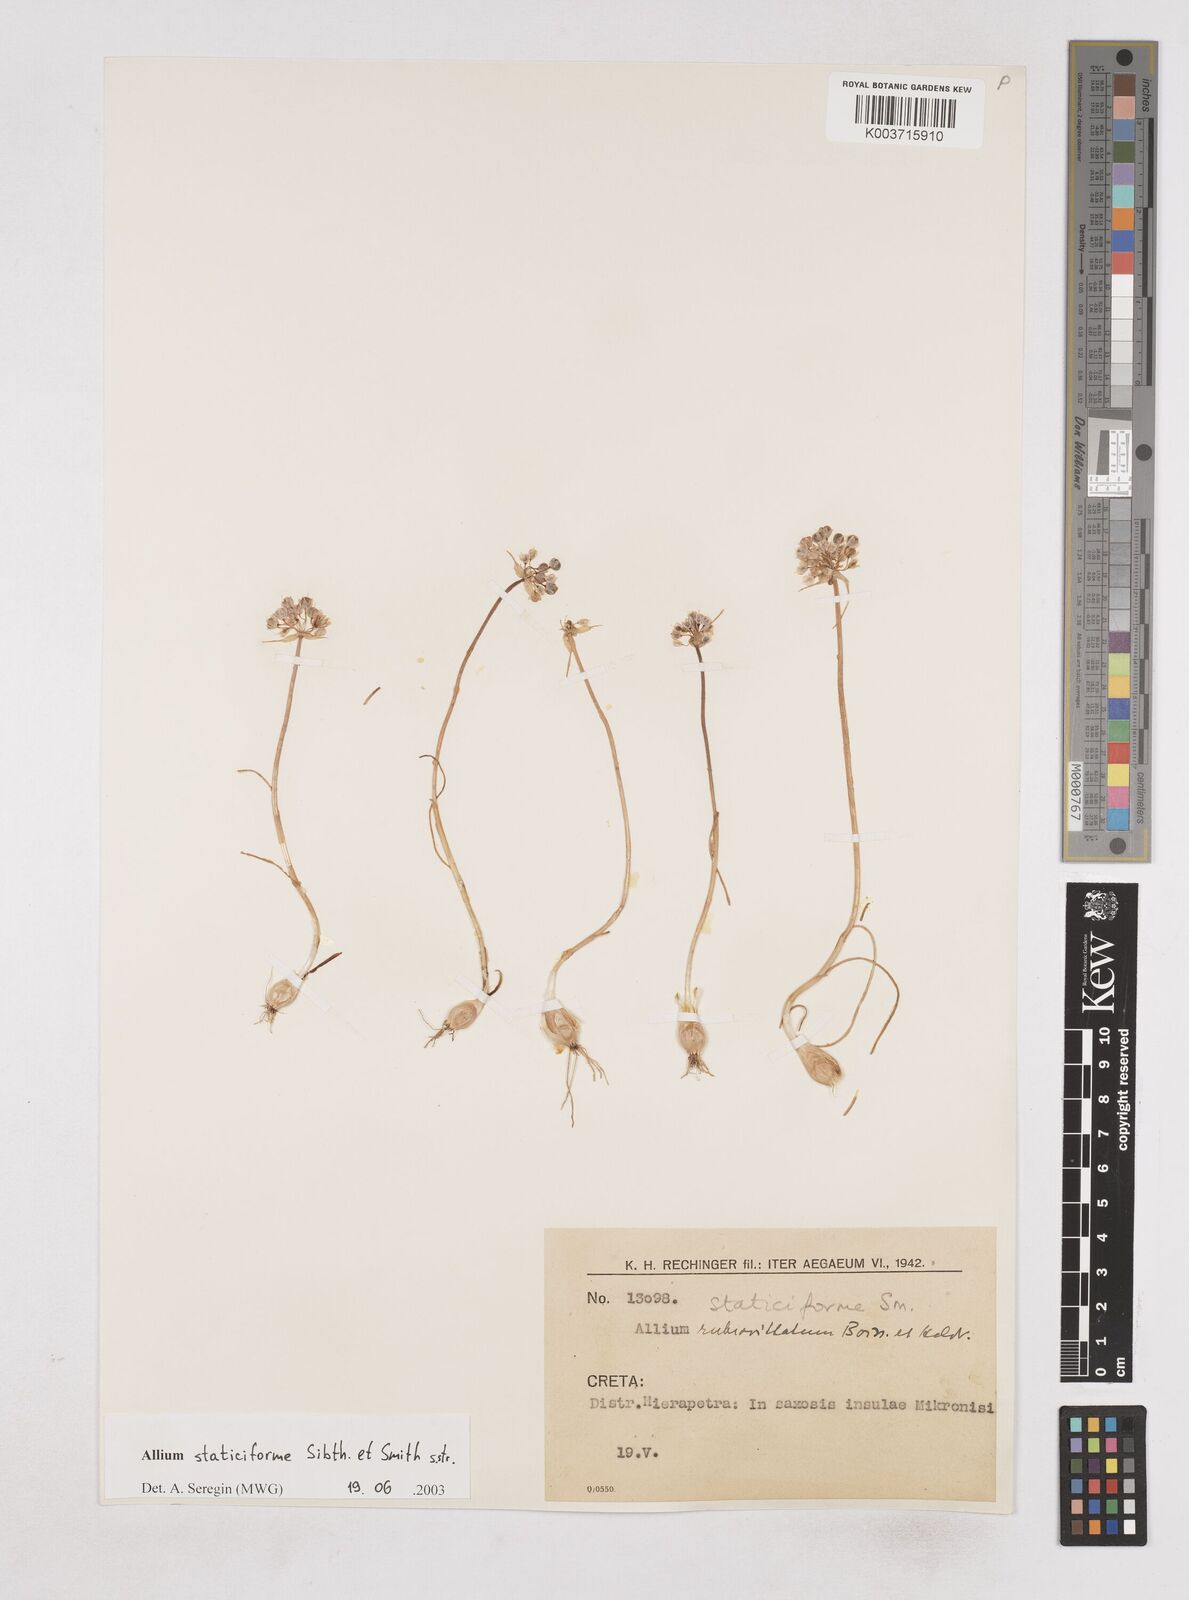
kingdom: Plantae
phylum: Tracheophyta
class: Liliopsida
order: Asparagales
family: Amaryllidaceae
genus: Allium
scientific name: Allium staticiforme
